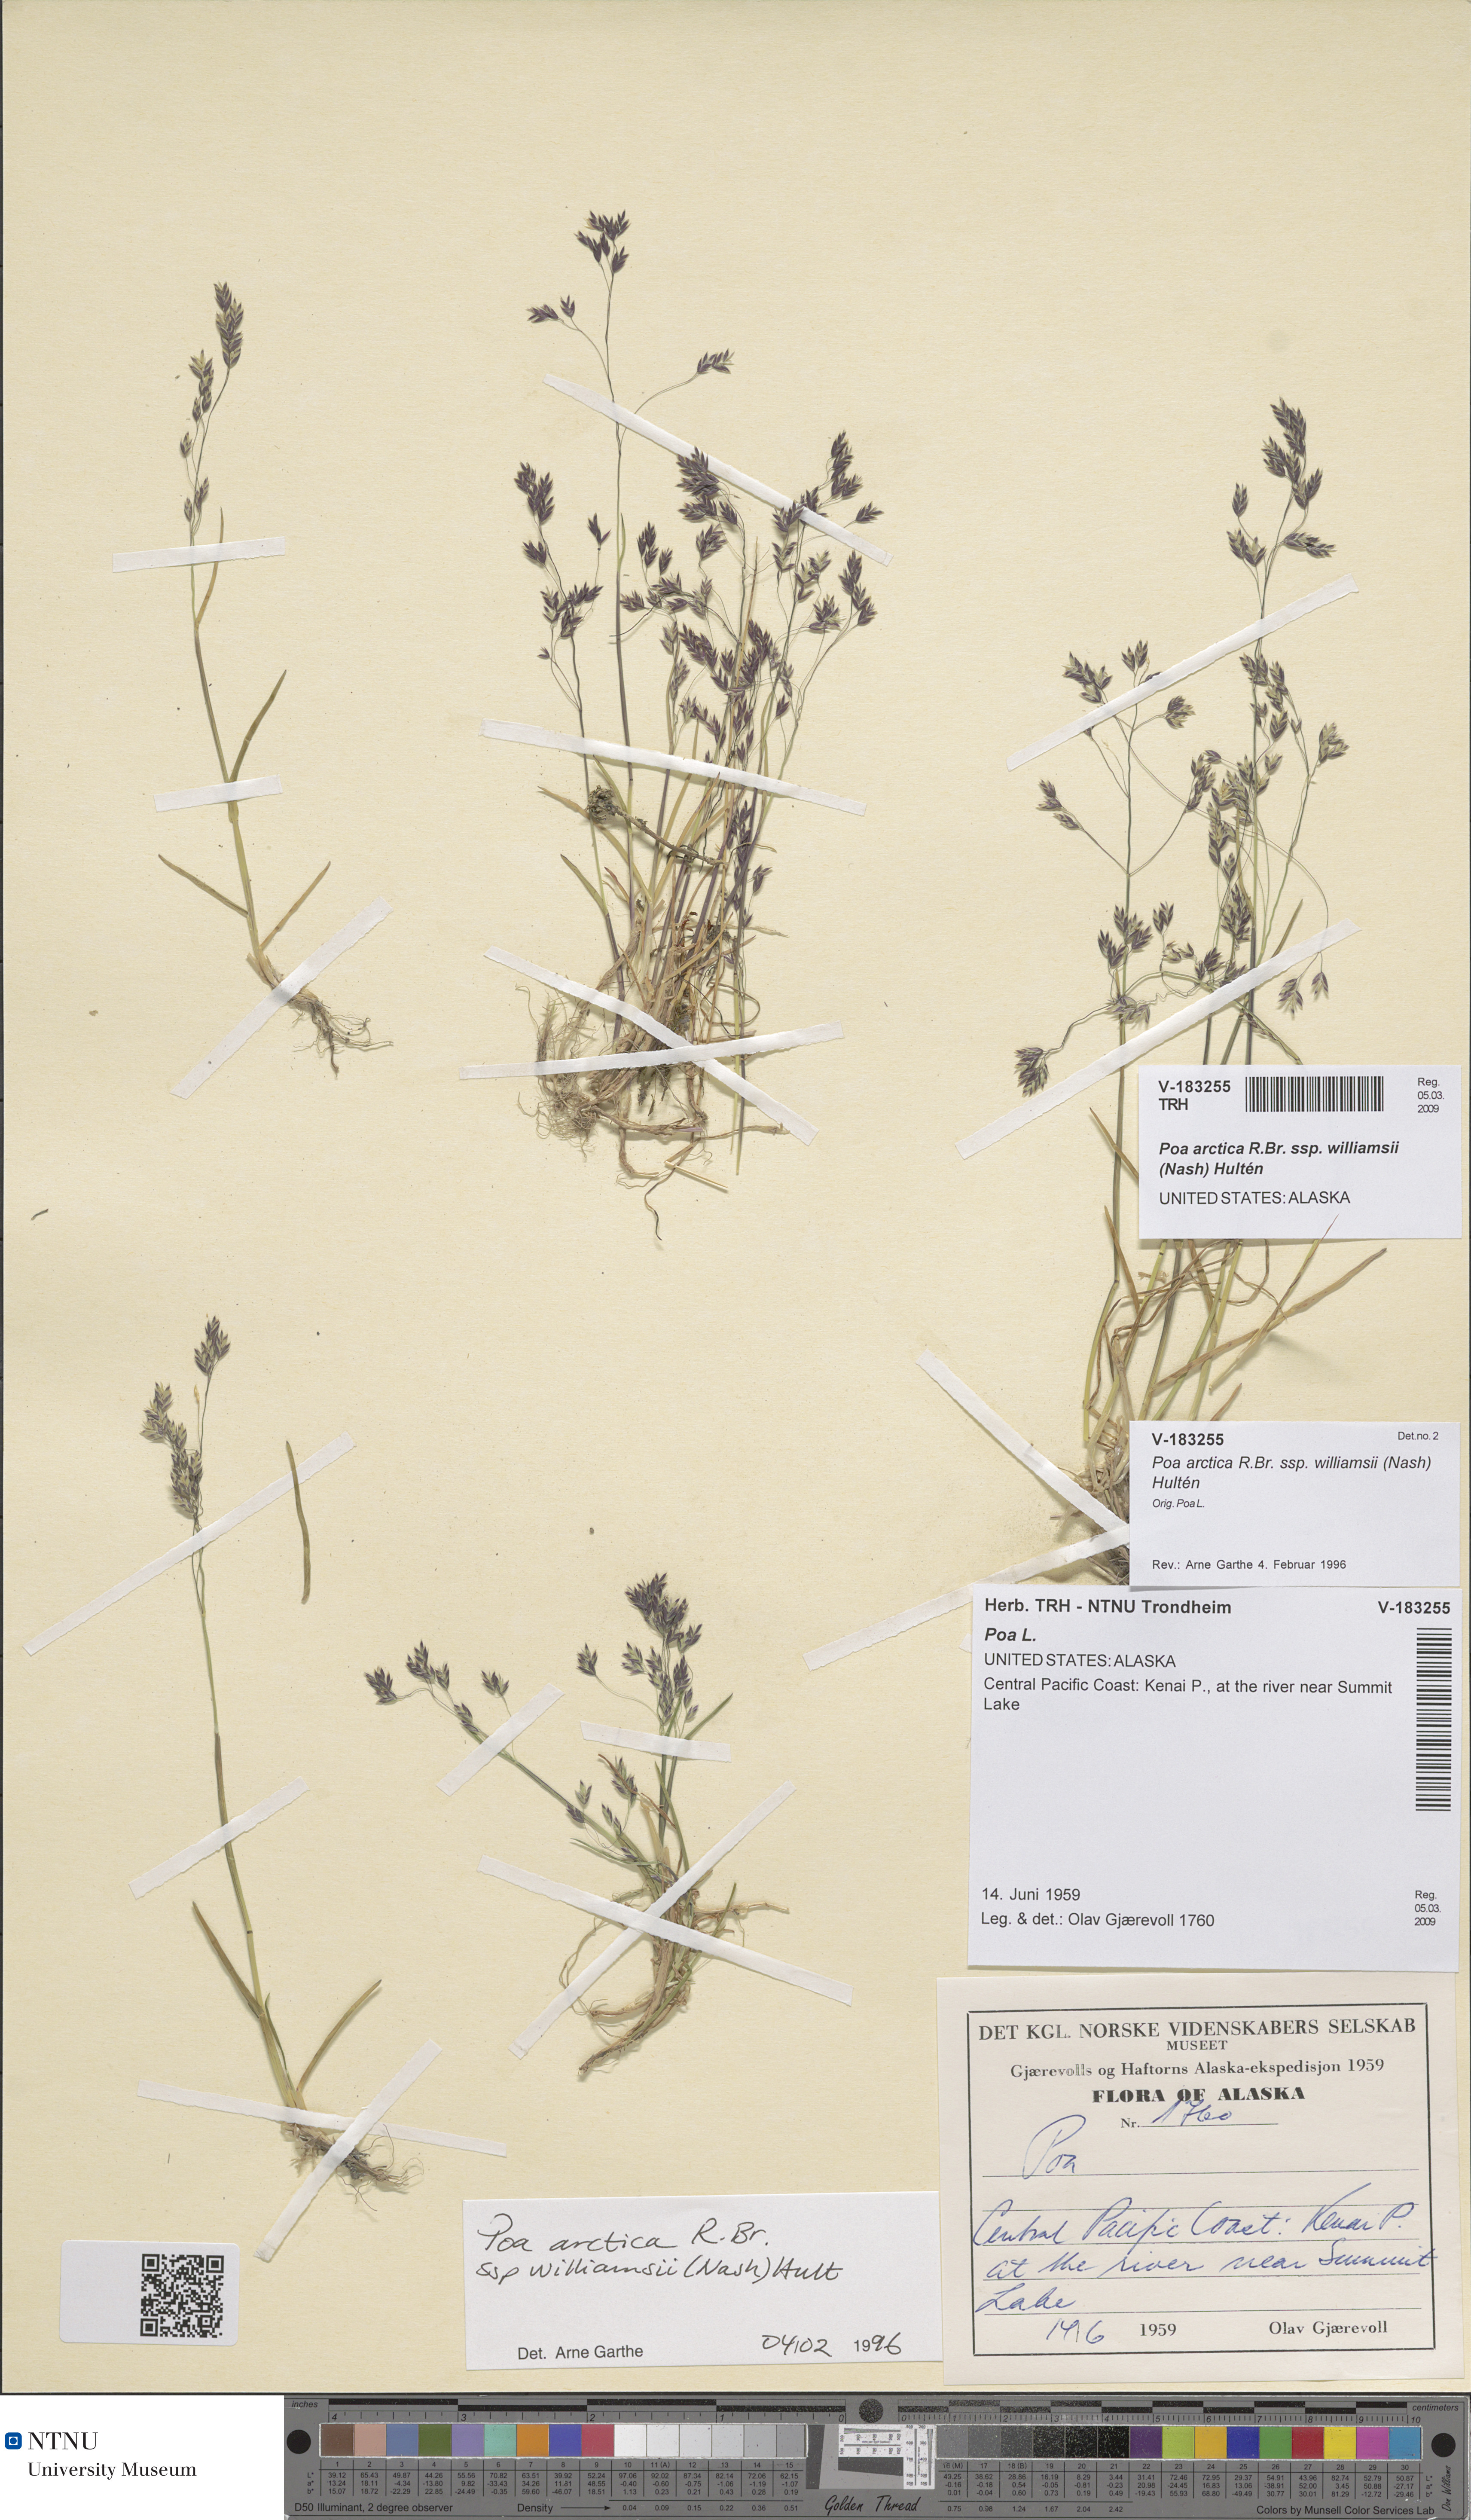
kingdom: Plantae
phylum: Tracheophyta
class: Liliopsida
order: Poales
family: Poaceae
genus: Poa
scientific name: Poa arctica
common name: Arctic bluegrass
